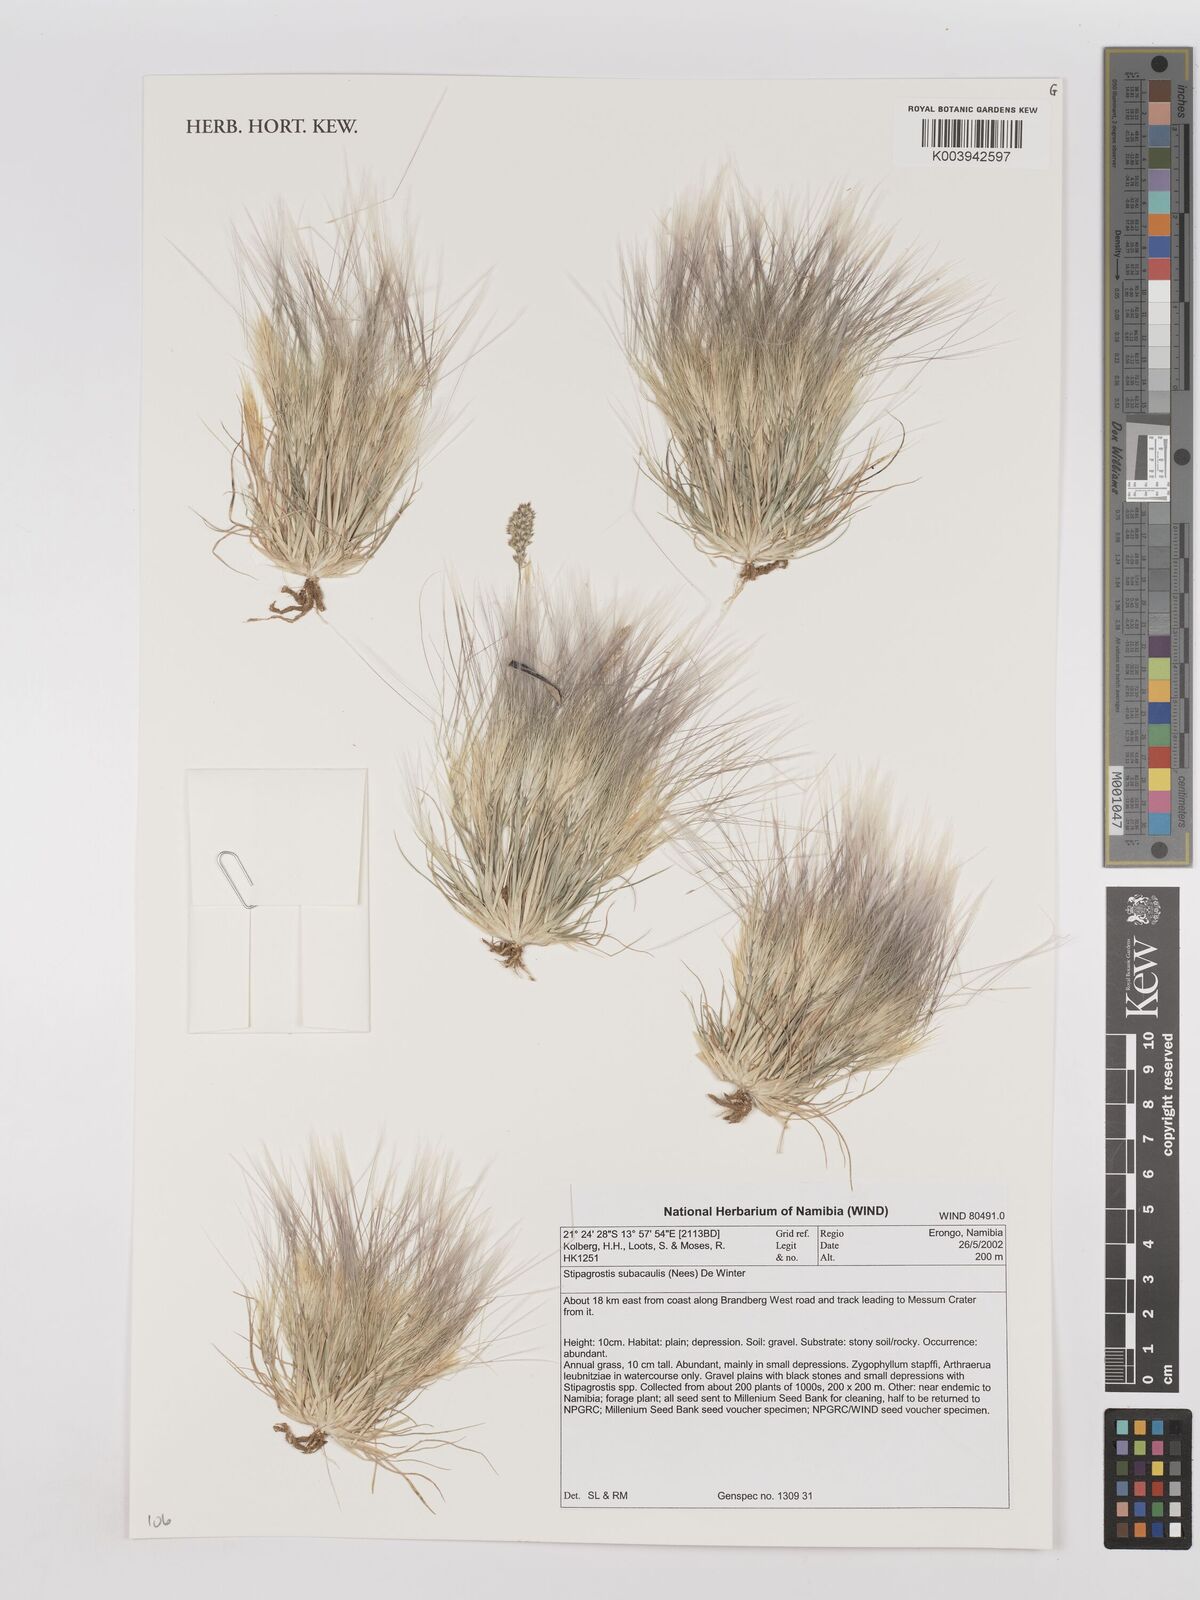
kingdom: Plantae
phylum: Tracheophyta
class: Liliopsida
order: Poales
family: Poaceae
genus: Stipagrostis
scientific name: Stipagrostis subacaulis
